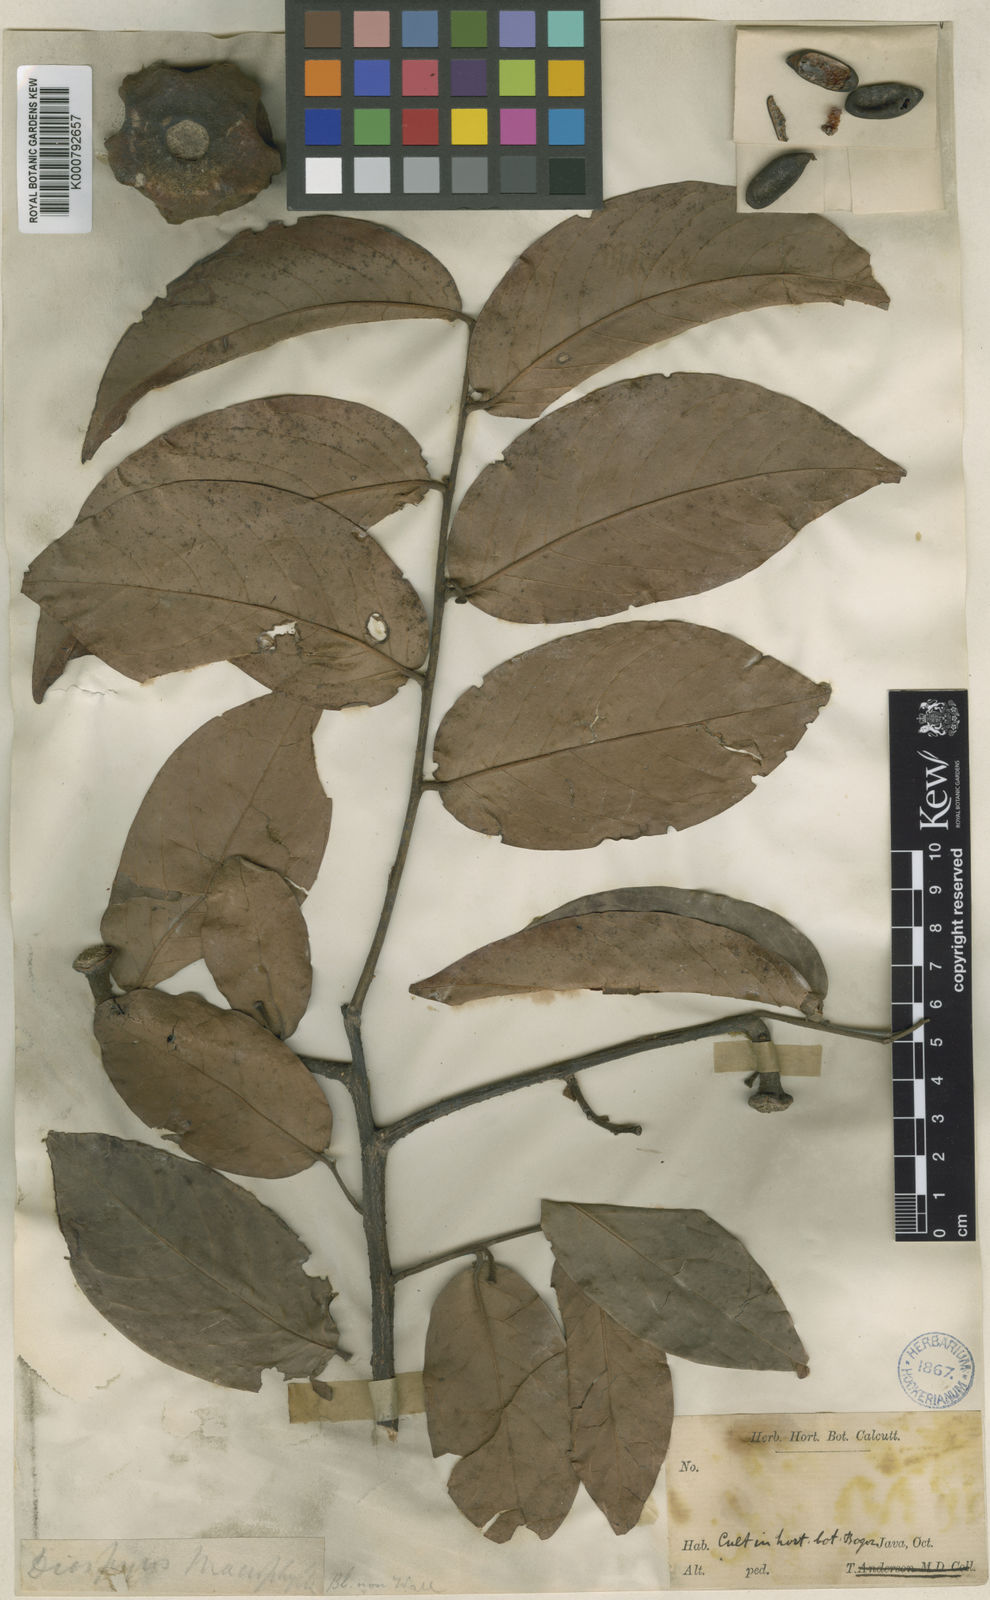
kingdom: Plantae
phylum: Tracheophyta
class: Magnoliopsida
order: Ericales
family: Ebenaceae
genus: Diospyros
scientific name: Diospyros macrophylla
